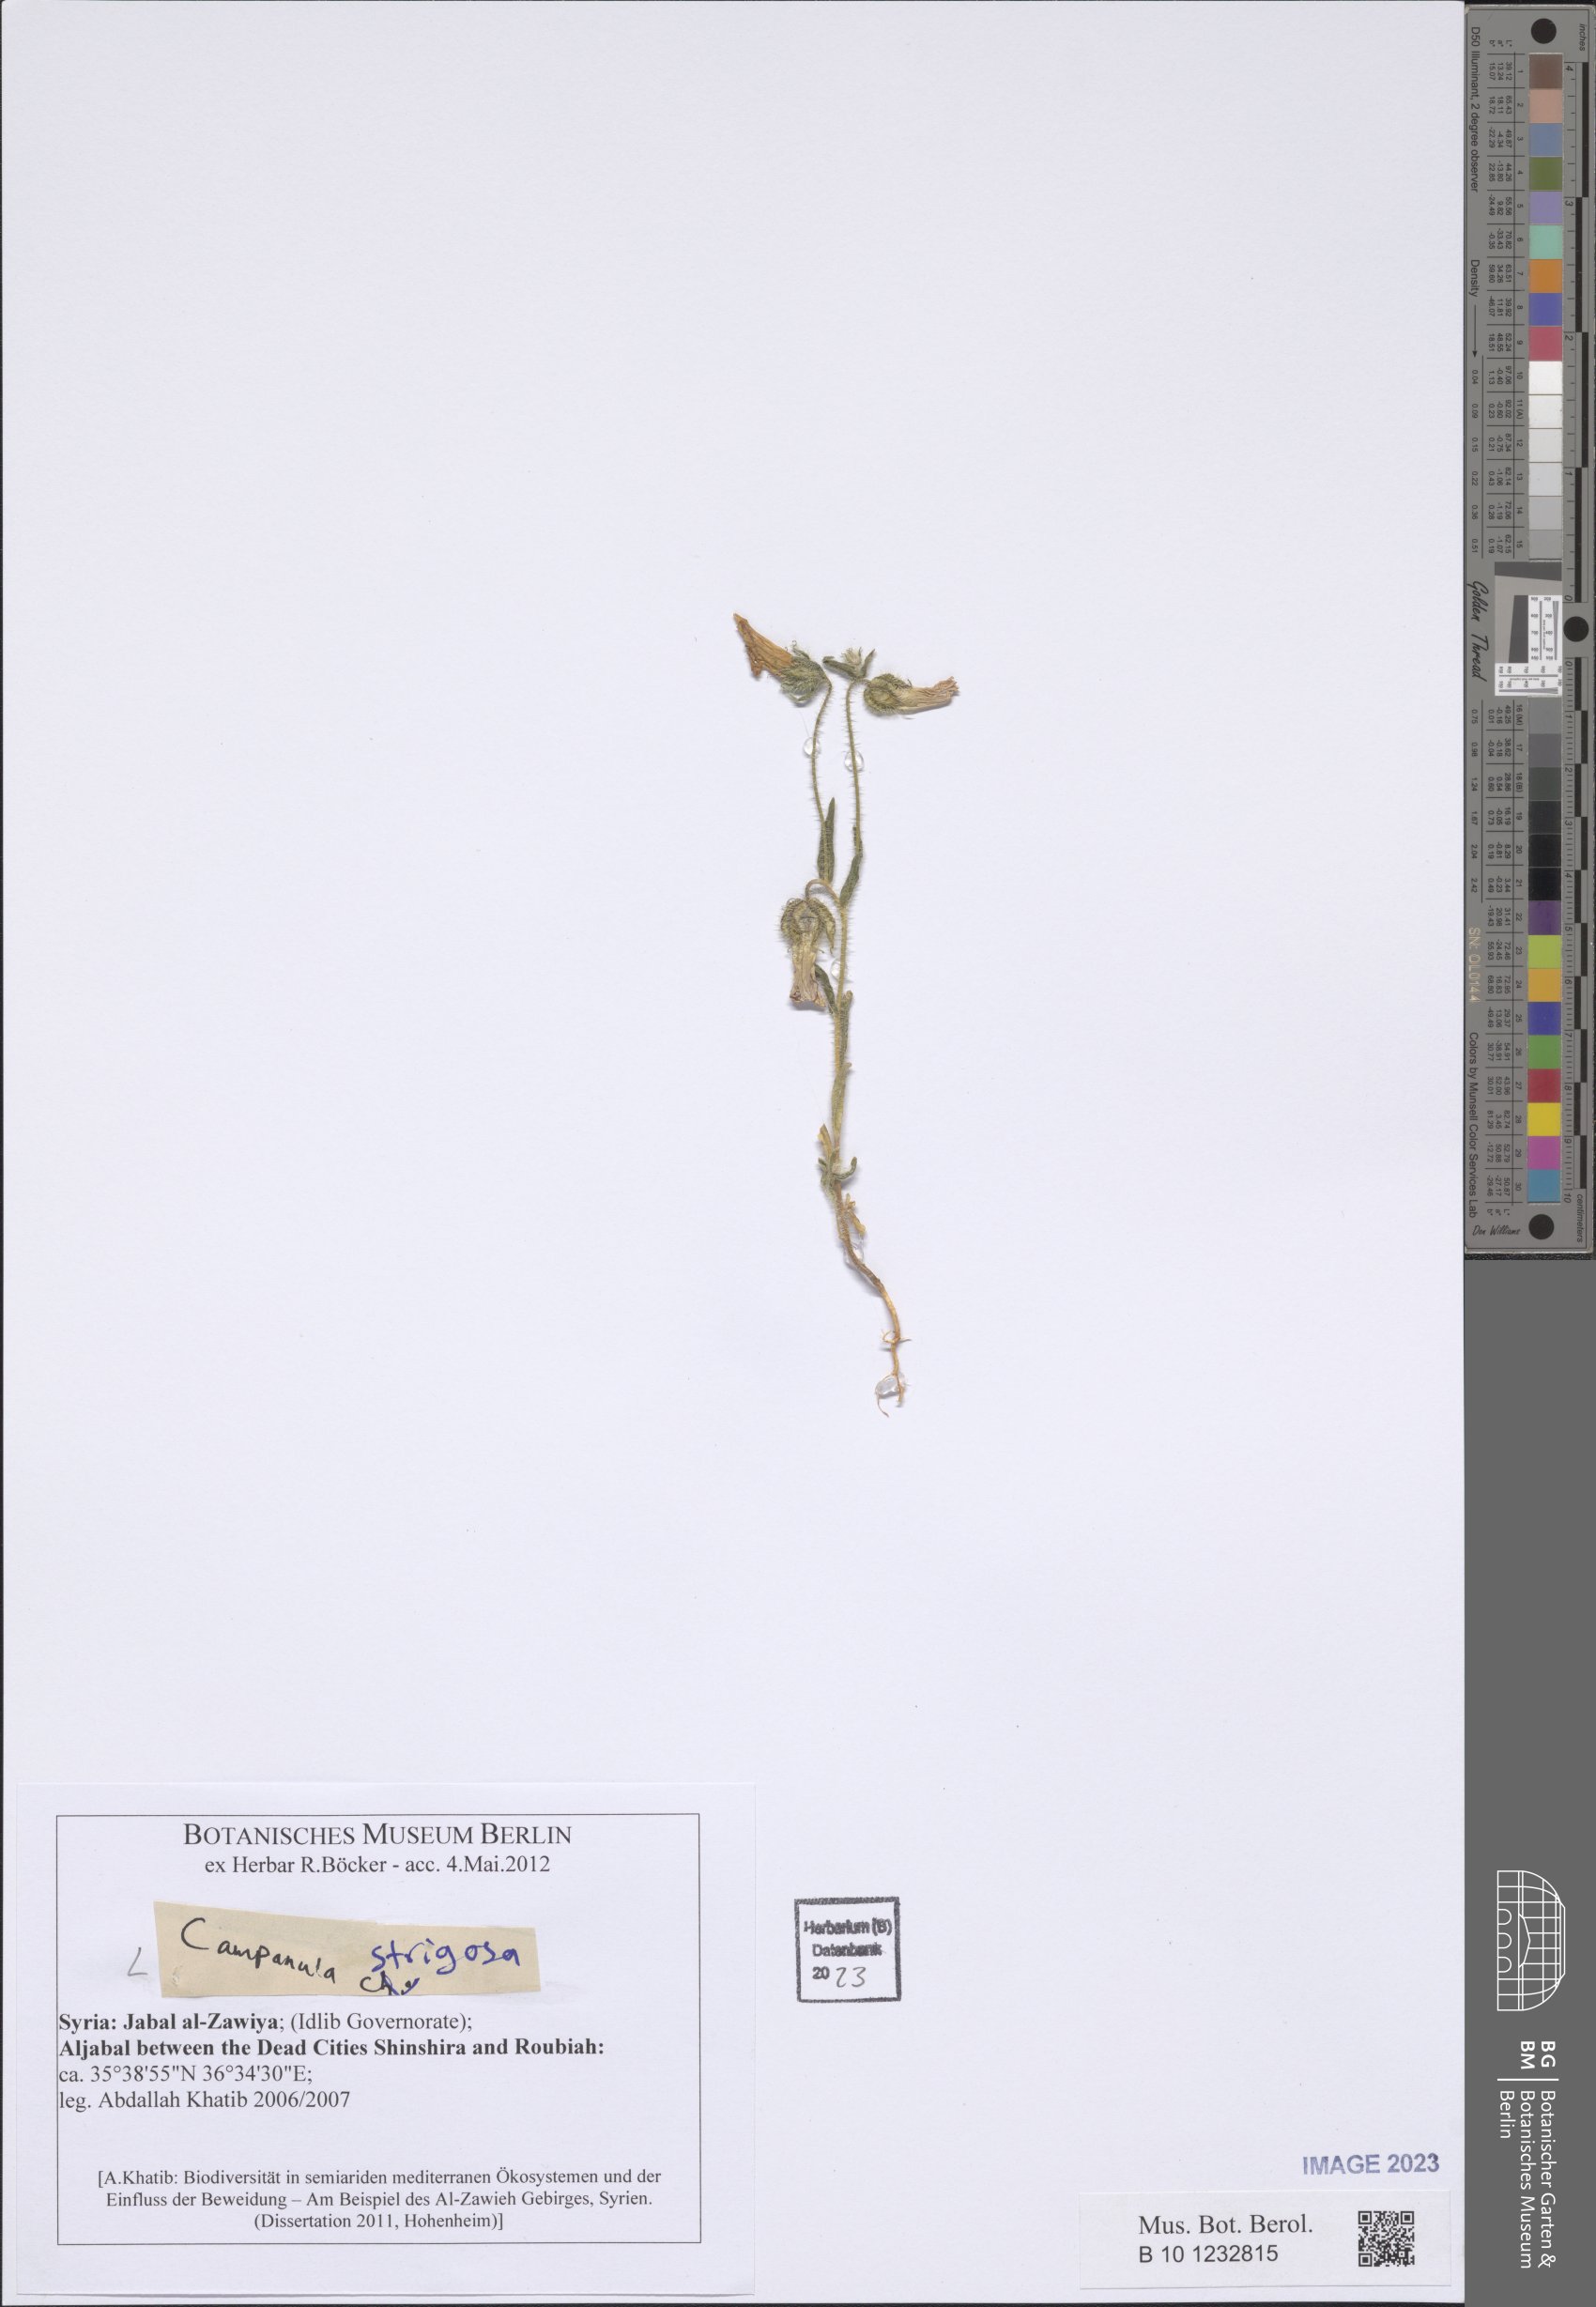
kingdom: Plantae
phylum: Tracheophyta
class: Magnoliopsida
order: Asterales
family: Campanulaceae
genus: Campanula
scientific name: Campanula strigosa
